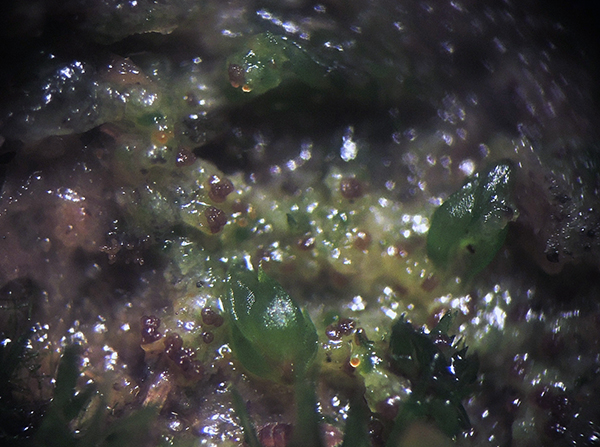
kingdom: Fungi
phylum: Ascomycota
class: Lecanoromycetes
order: Lecanorales
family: Aphanopsidaceae
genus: Steinia
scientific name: Steinia geophana
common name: liden jordlav
